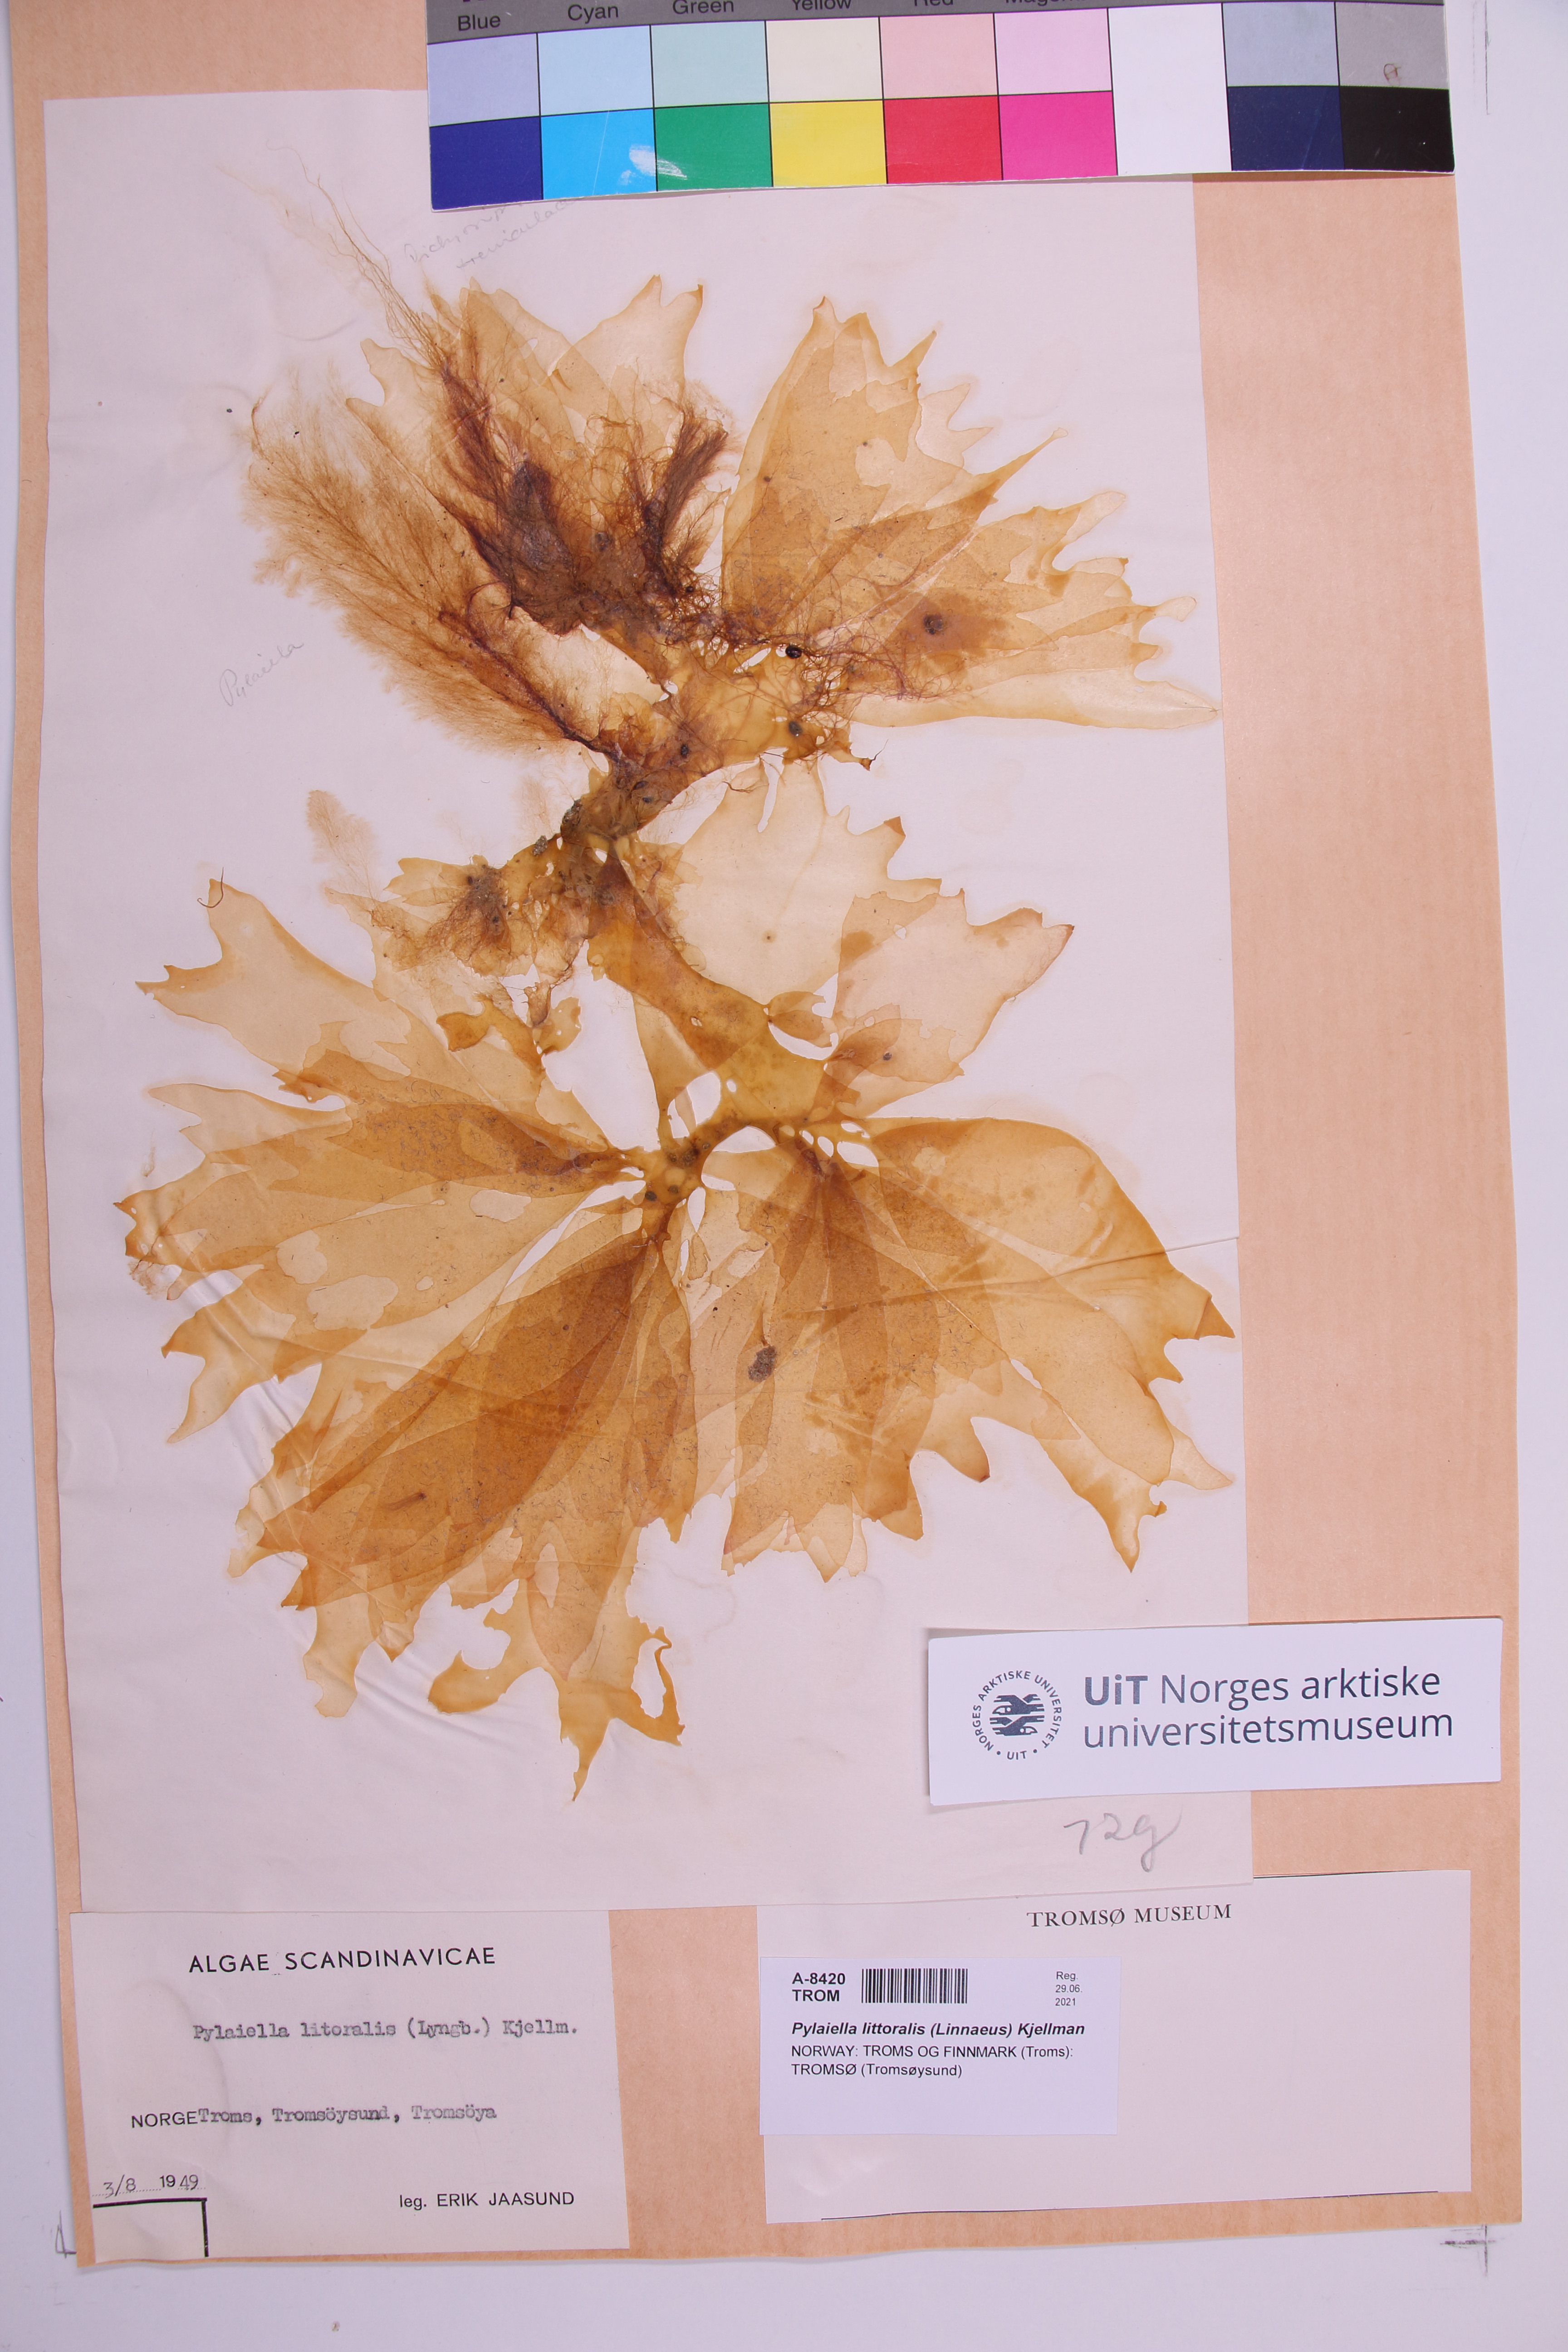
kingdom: Chromista
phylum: Ochrophyta
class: Phaeophyceae
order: Ectocarpales
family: Acinetosporaceae
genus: Pylaiella
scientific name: Pylaiella littoralis
